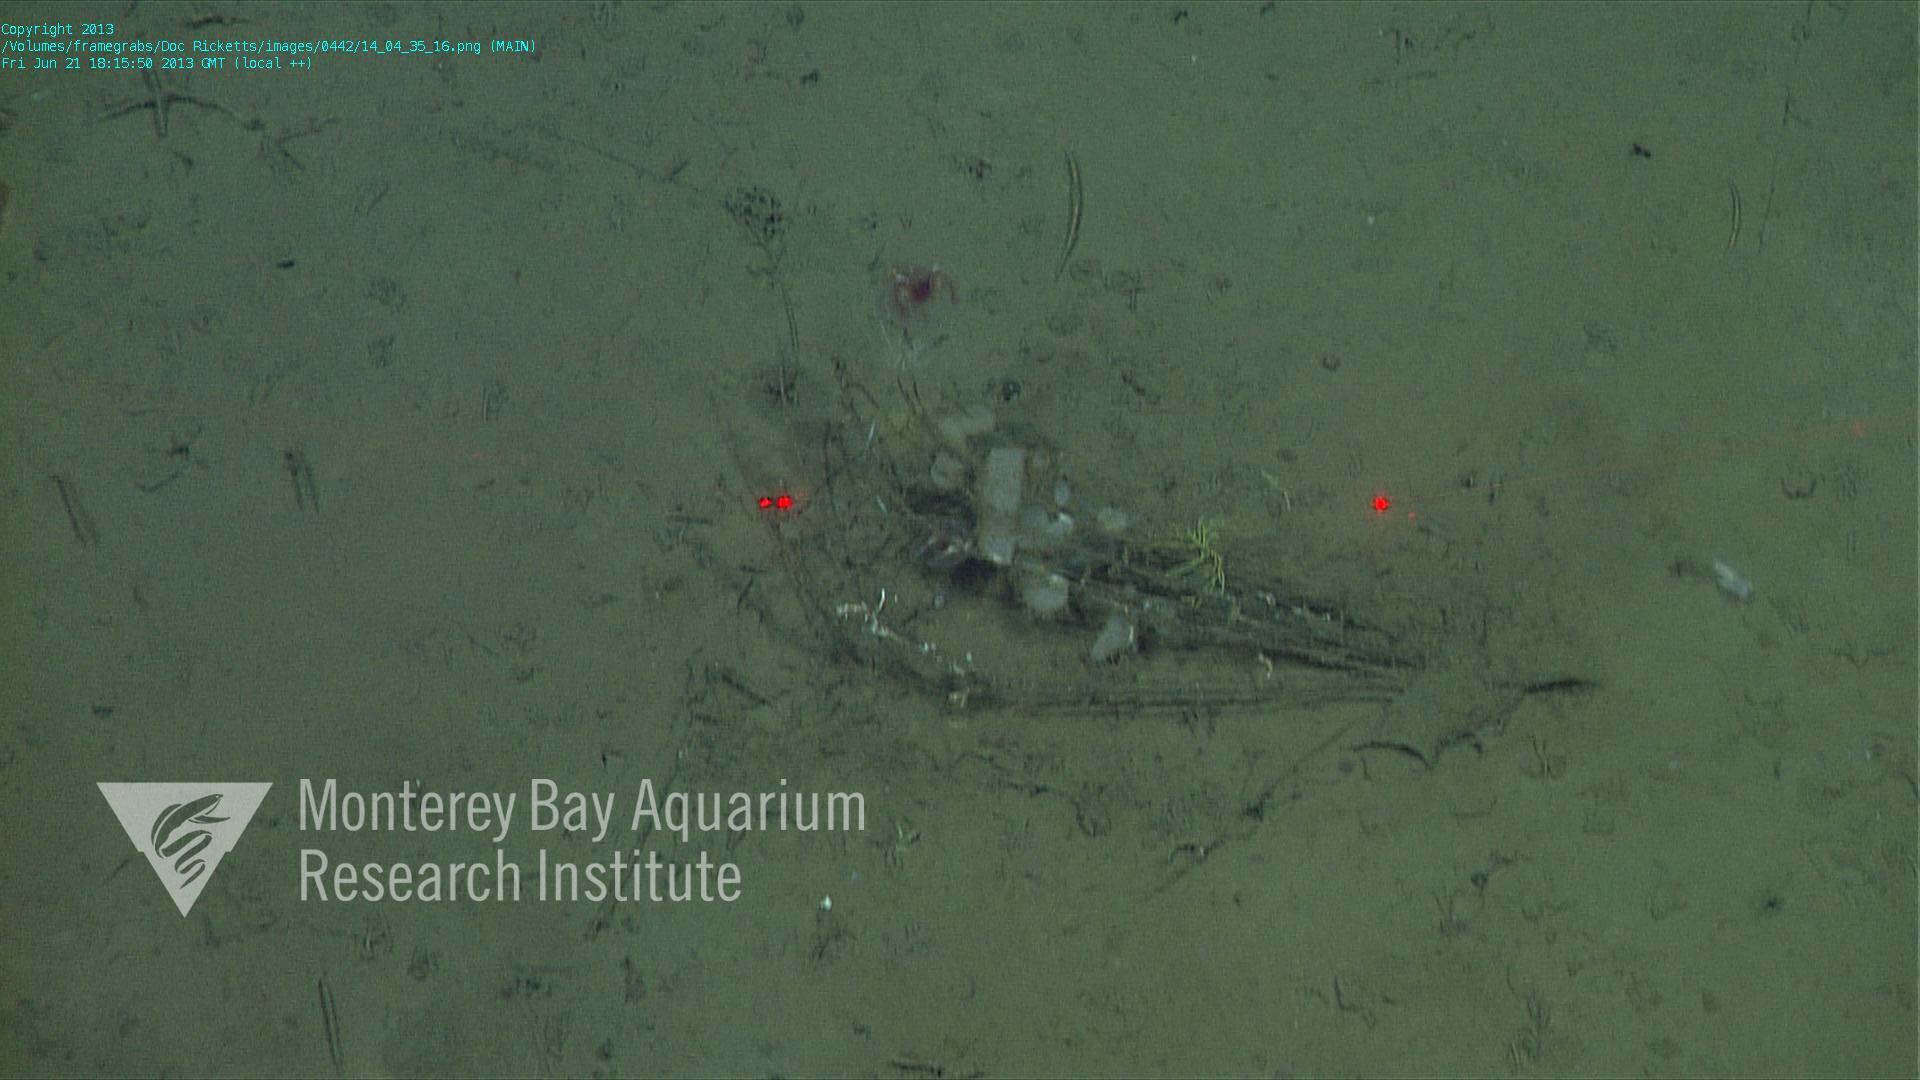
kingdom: Animalia
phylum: Porifera
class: Hexactinellida
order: Lyssacinosida
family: Rossellidae
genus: Bathydorus
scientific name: Bathydorus spinosus
